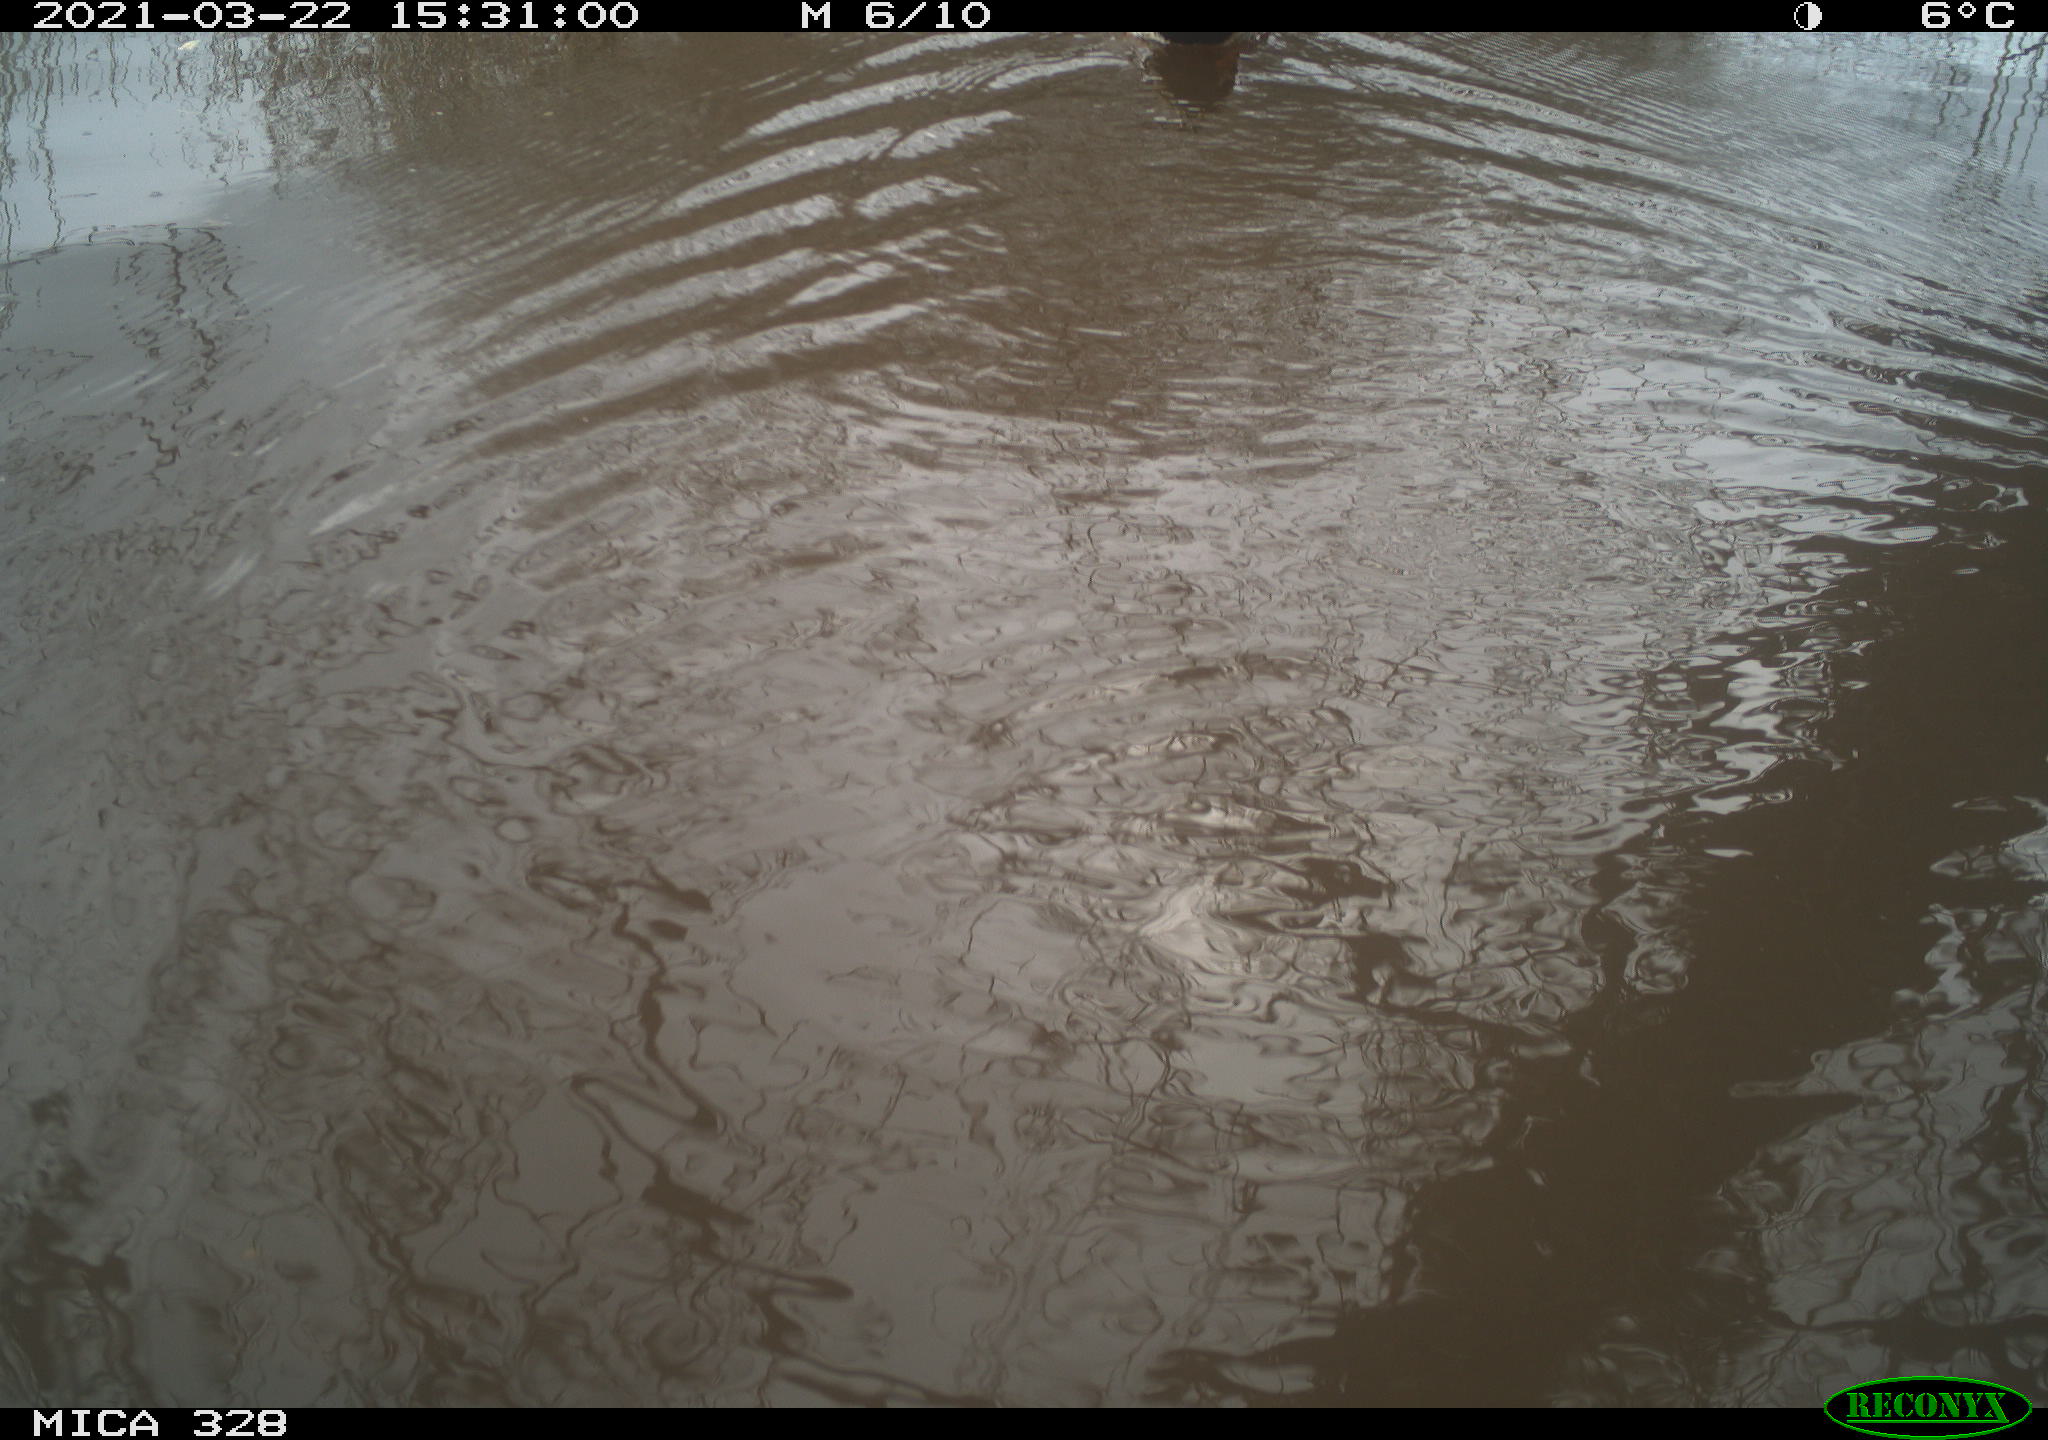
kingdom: Animalia
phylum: Chordata
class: Aves
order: Anseriformes
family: Anatidae
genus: Anas
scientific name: Anas platyrhynchos
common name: Mallard
